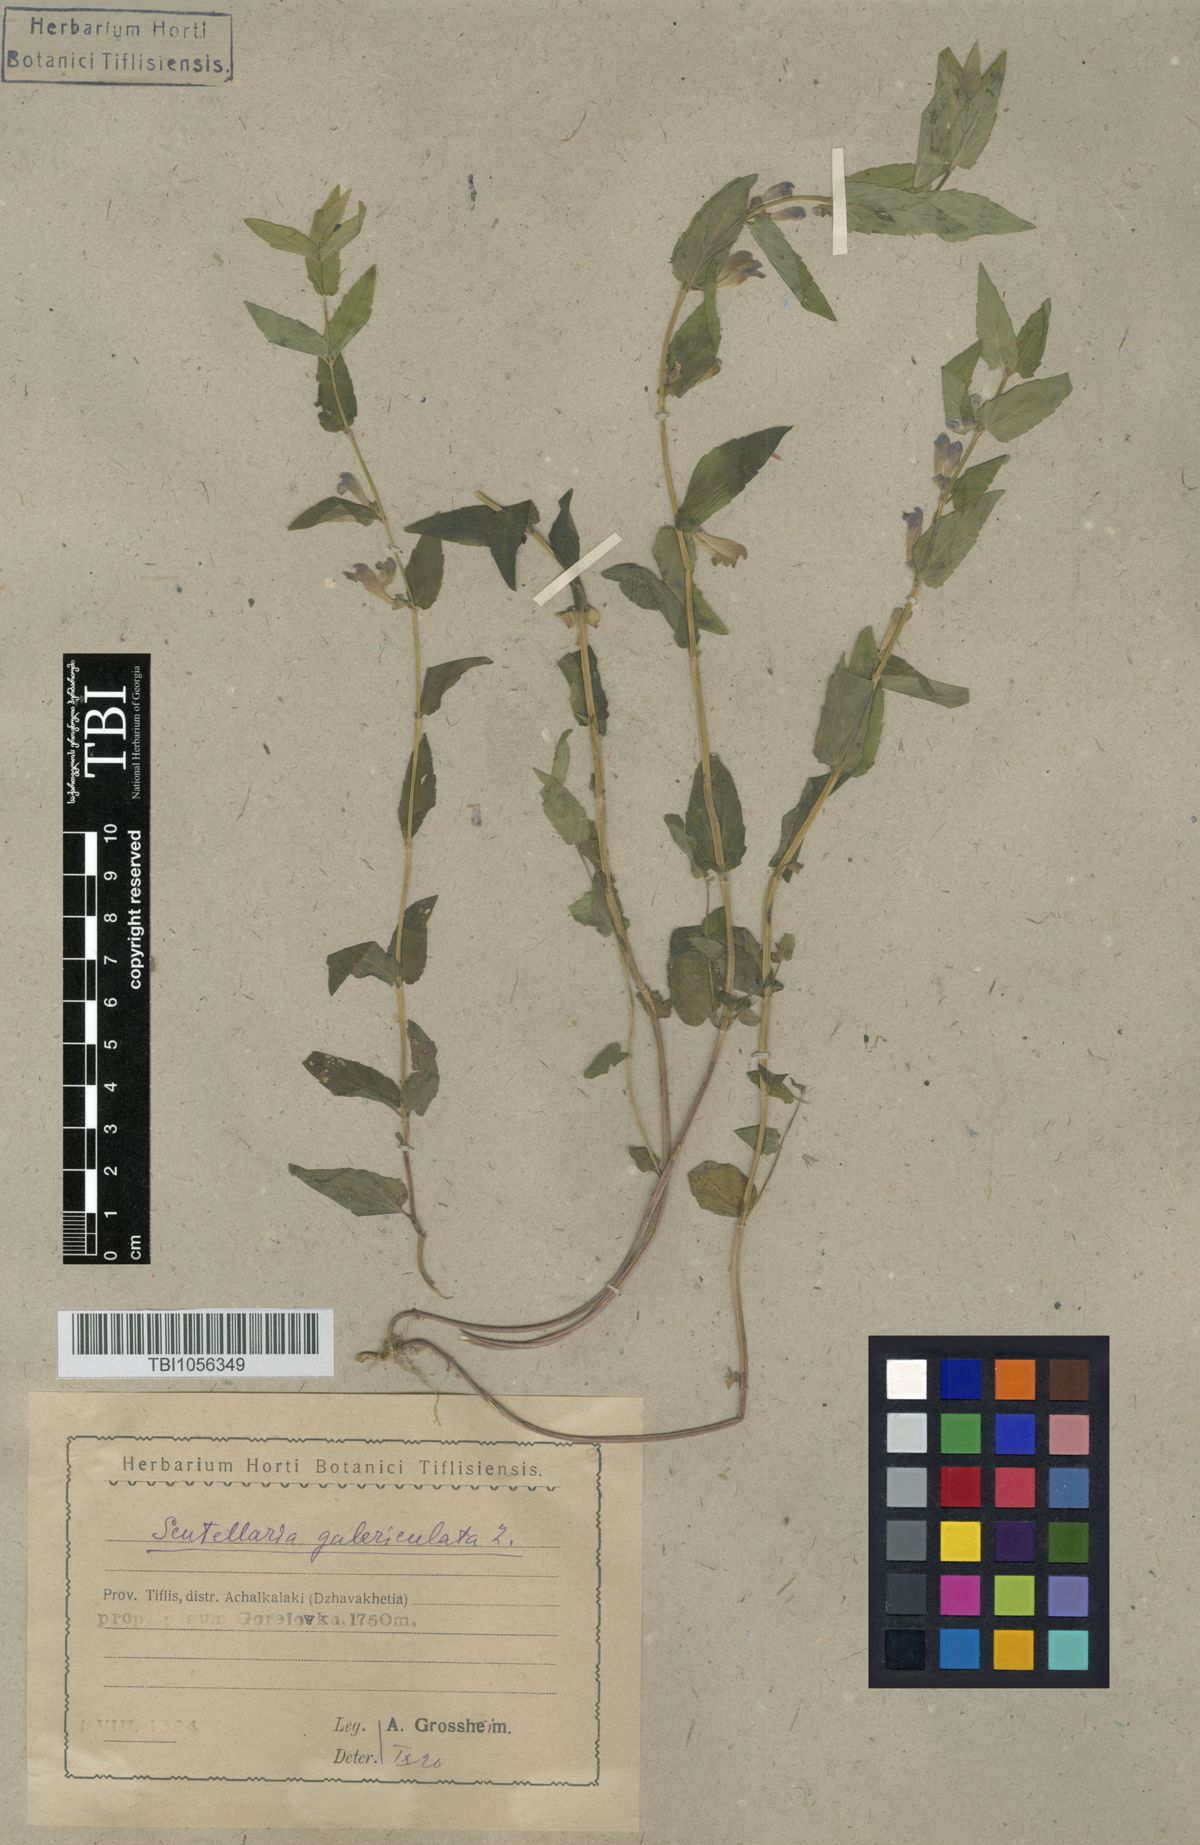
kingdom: Plantae
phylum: Tracheophyta
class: Magnoliopsida
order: Lamiales
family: Lamiaceae
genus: Scutellaria
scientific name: Scutellaria galericulata
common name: Skullcap
